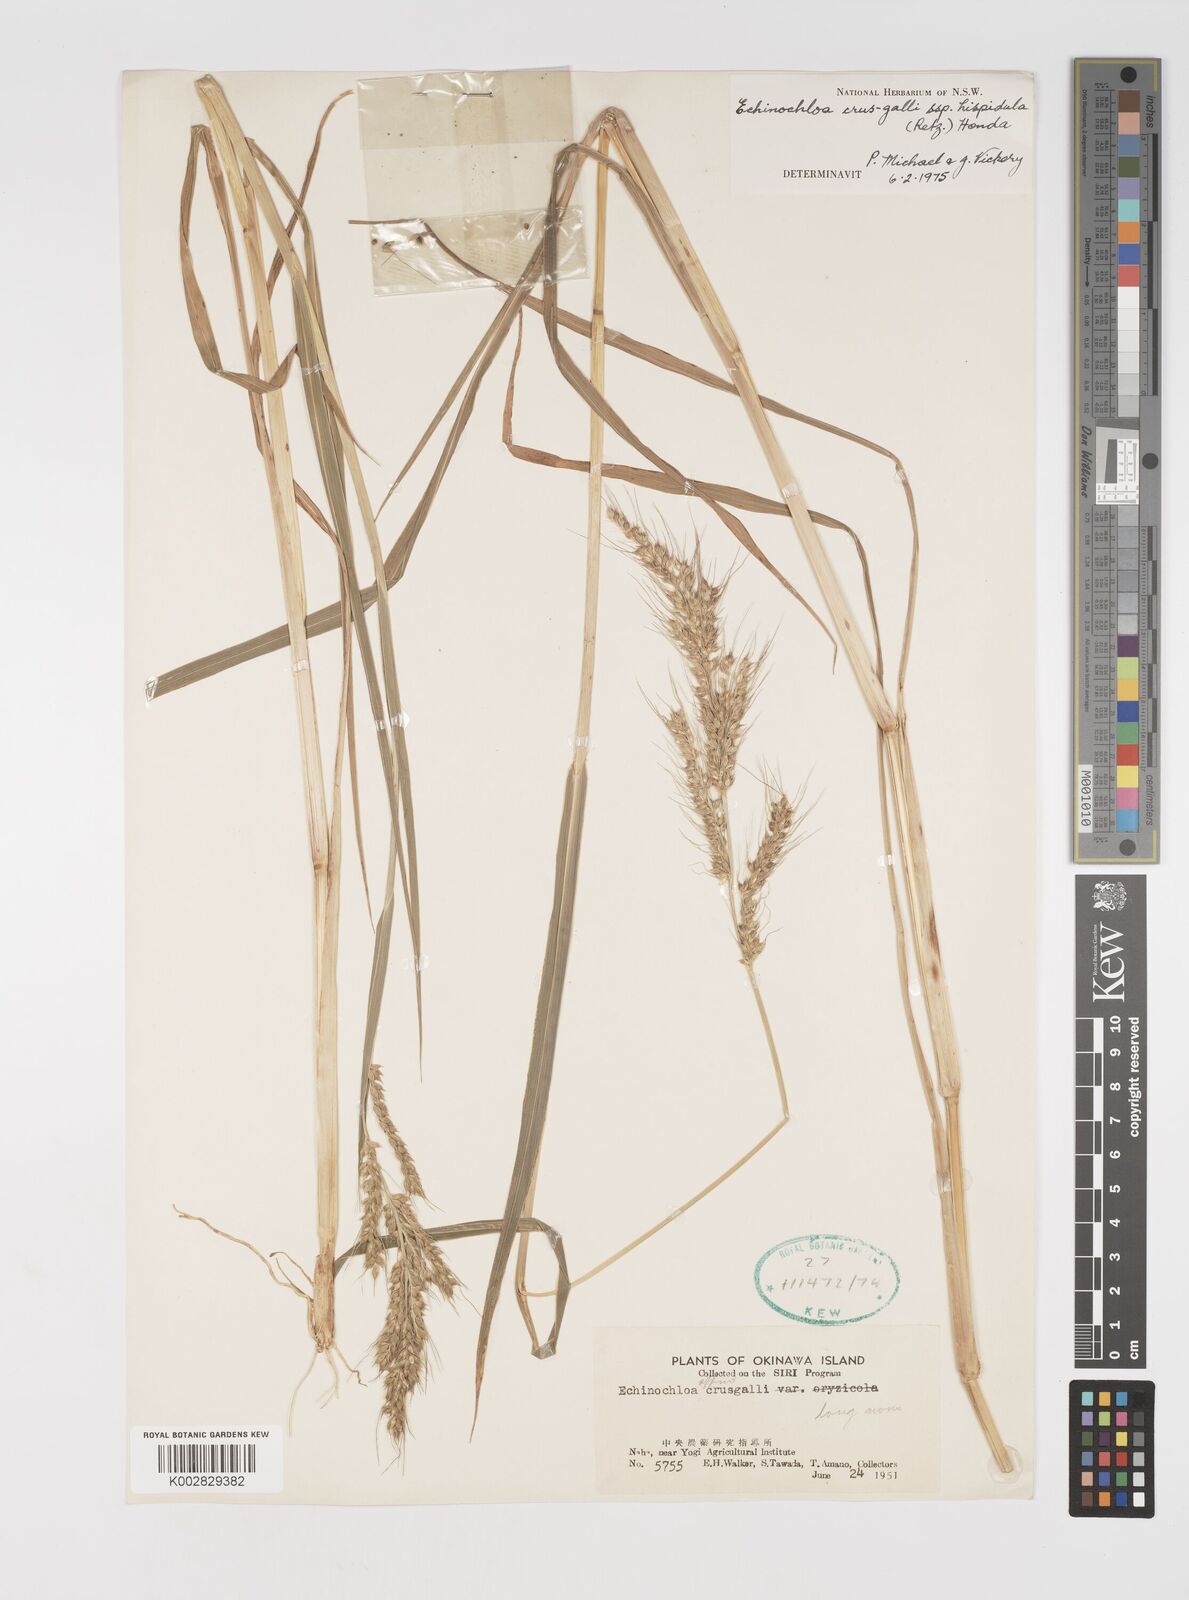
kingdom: Plantae
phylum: Tracheophyta
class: Liliopsida
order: Poales
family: Poaceae
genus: Echinochloa
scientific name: Echinochloa crus-galli
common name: Cockspur
